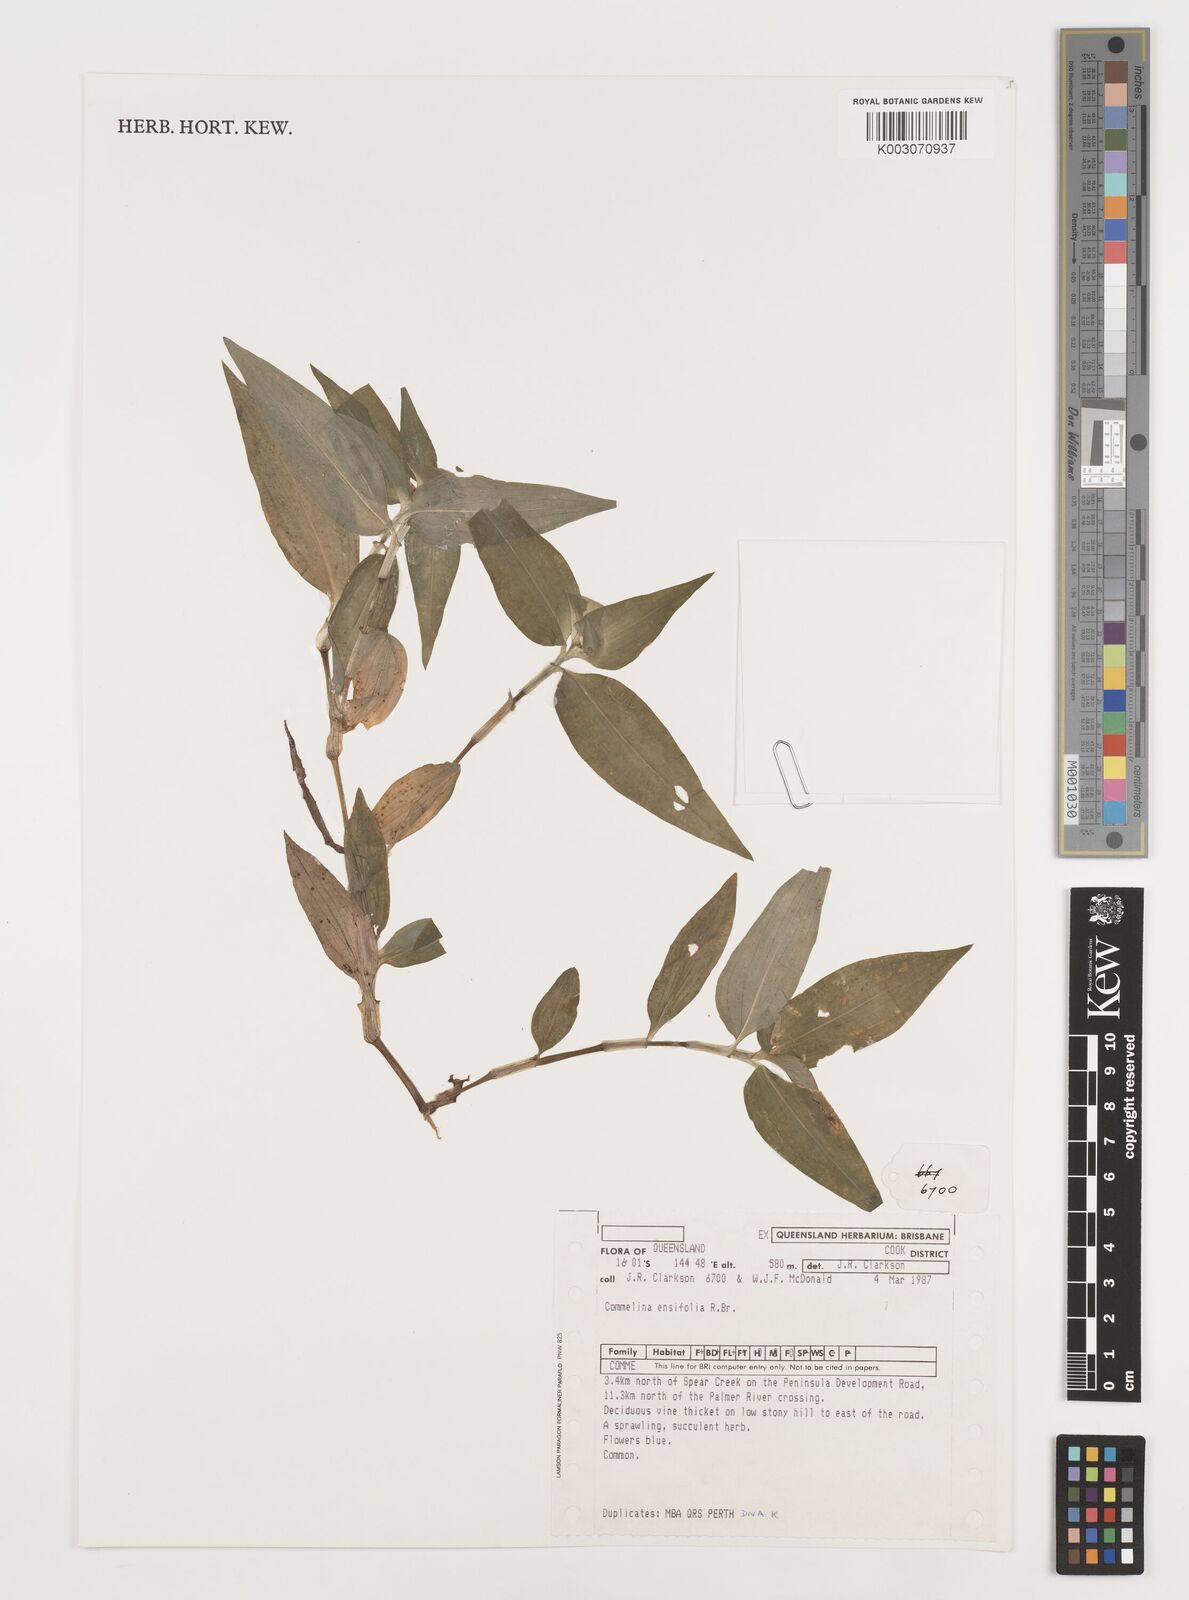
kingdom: Plantae
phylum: Tracheophyta
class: Liliopsida
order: Commelinales
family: Commelinaceae
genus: Commelina
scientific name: Commelina ensifolia
